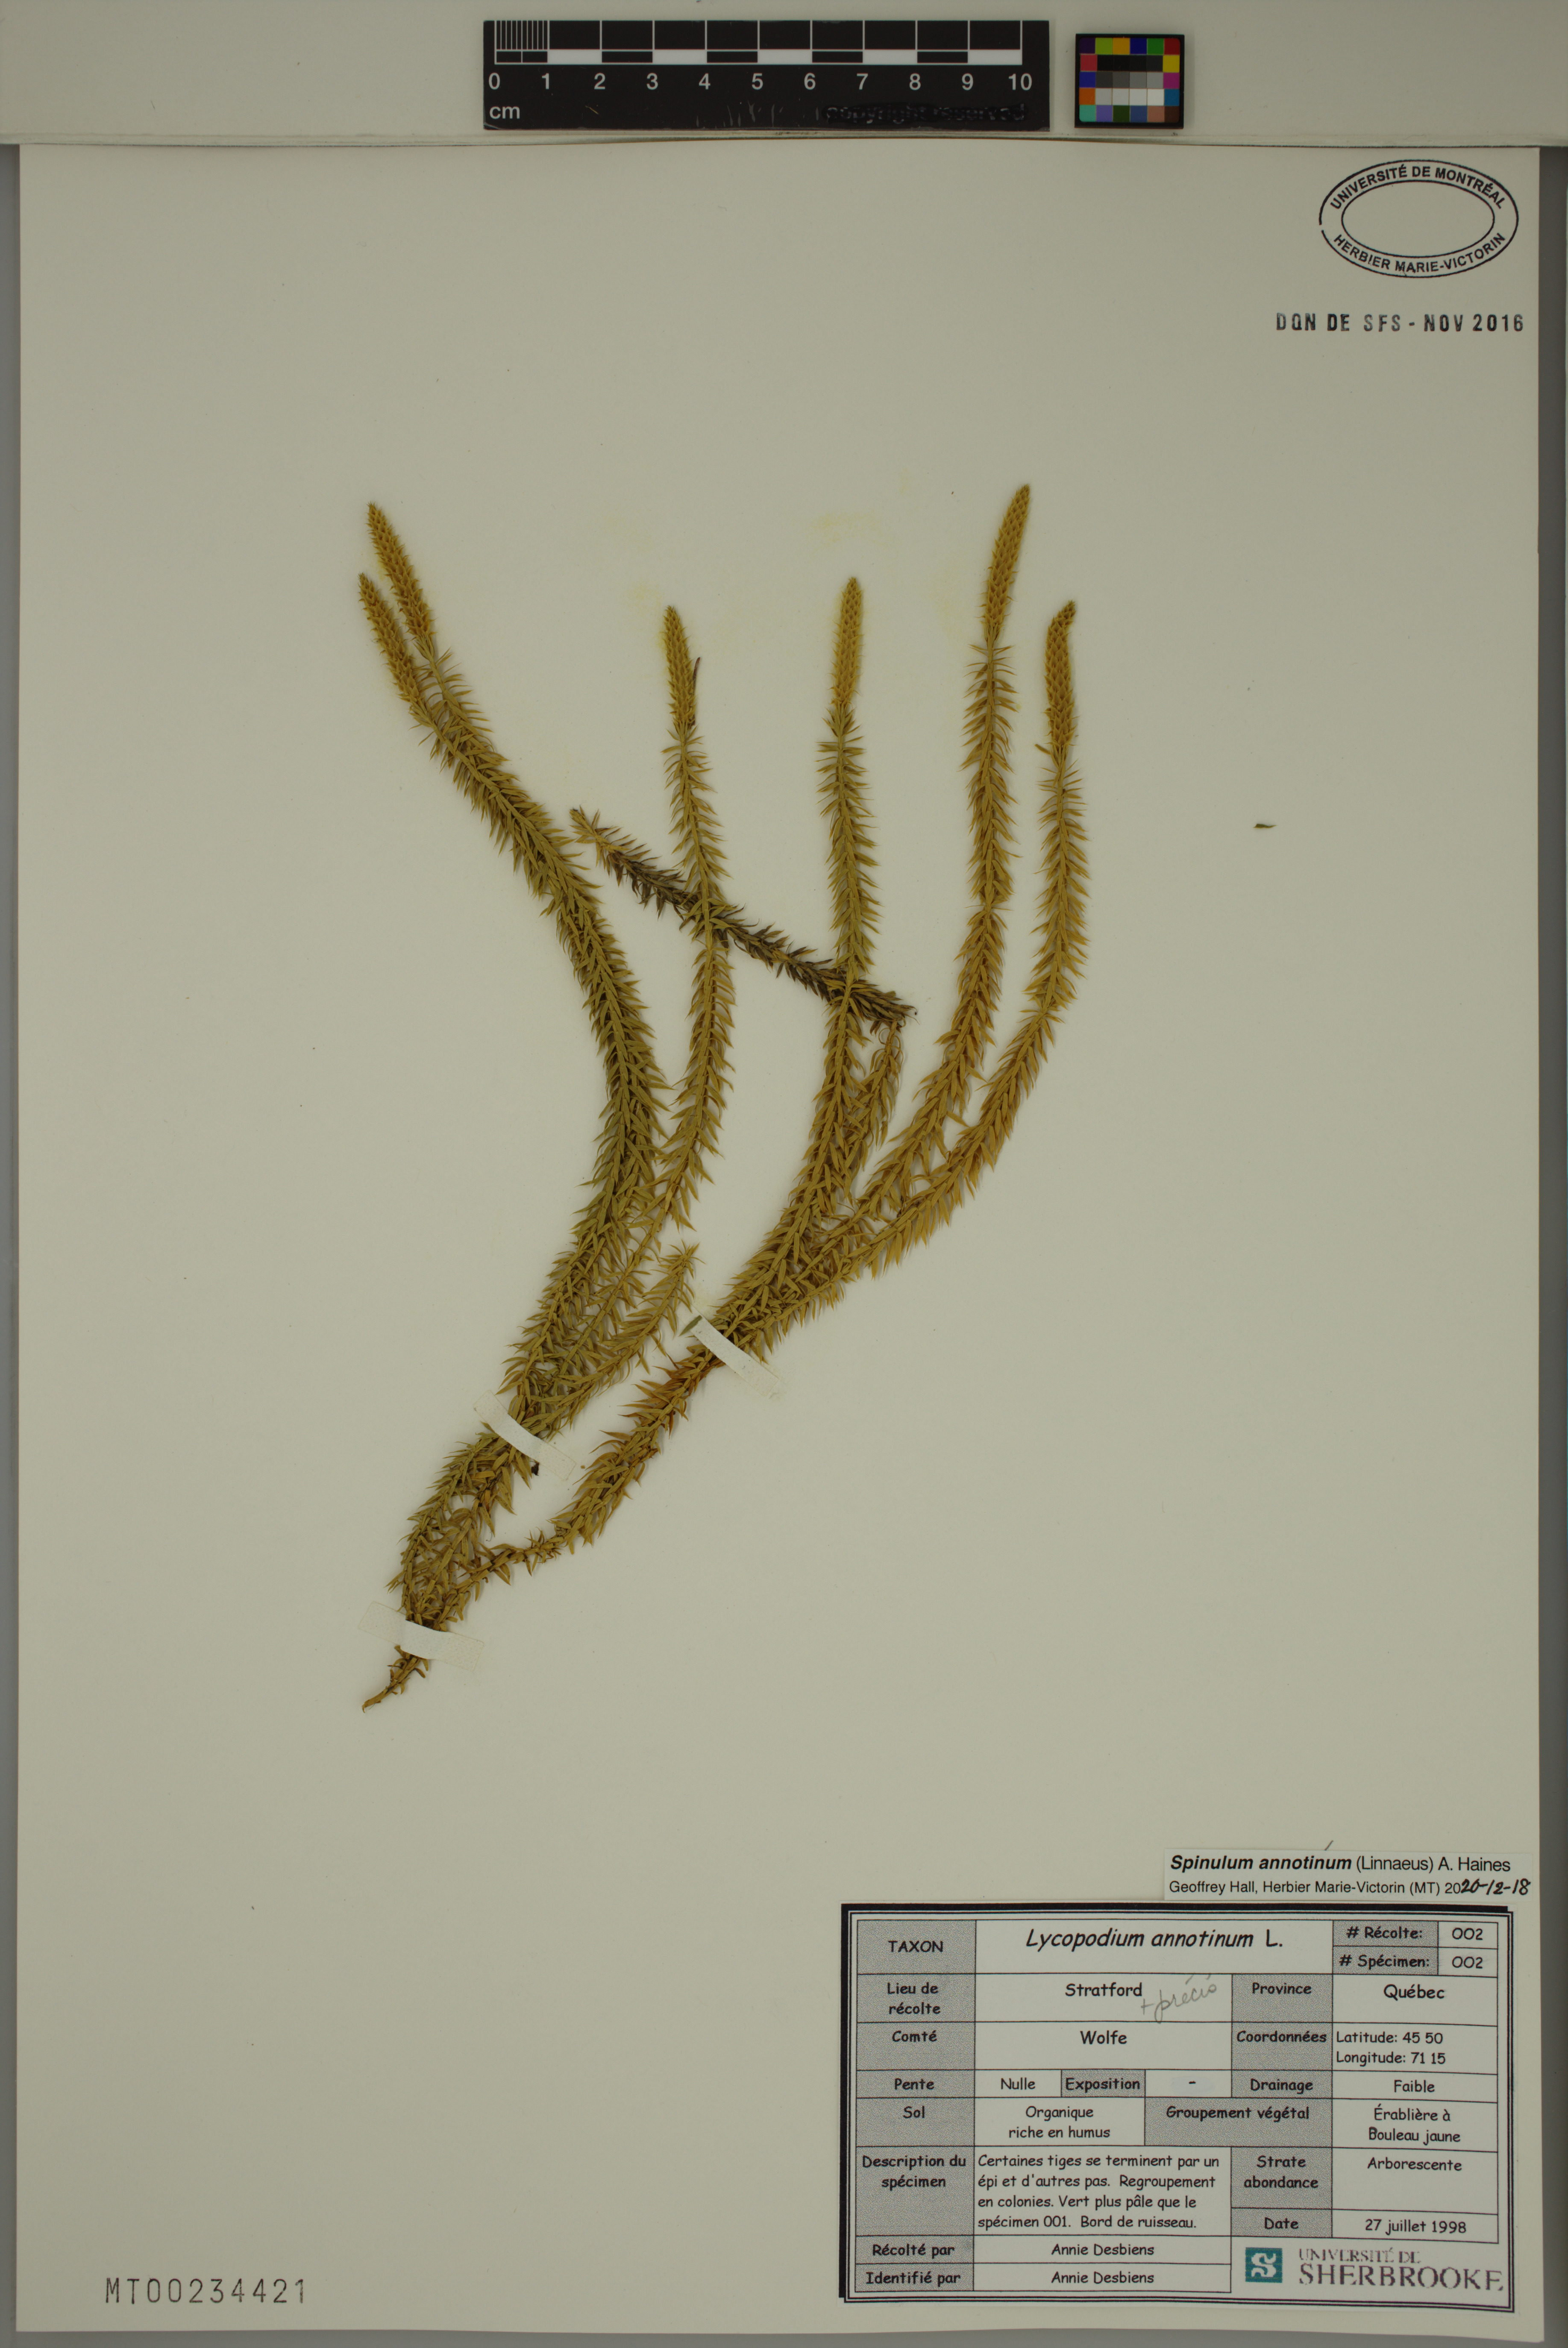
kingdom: Plantae
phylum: Tracheophyta
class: Lycopodiopsida
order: Lycopodiales
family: Lycopodiaceae
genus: Spinulum
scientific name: Spinulum annotinum
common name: Interrupted club-moss
